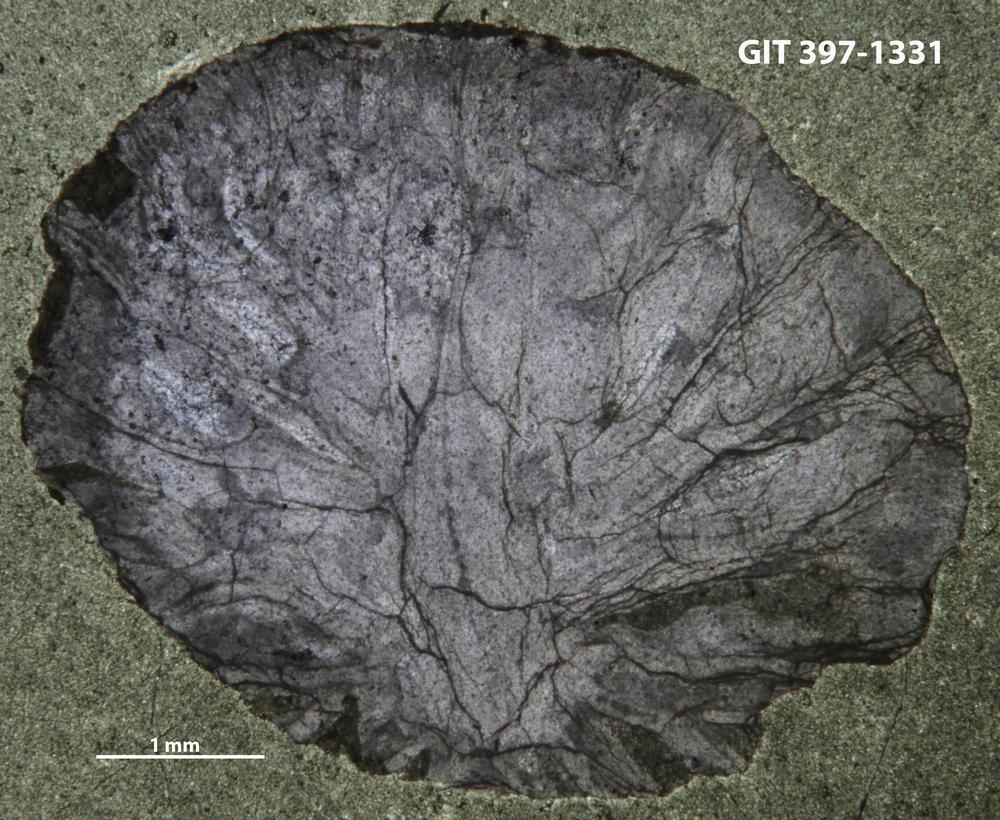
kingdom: Animalia
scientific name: Animalia
